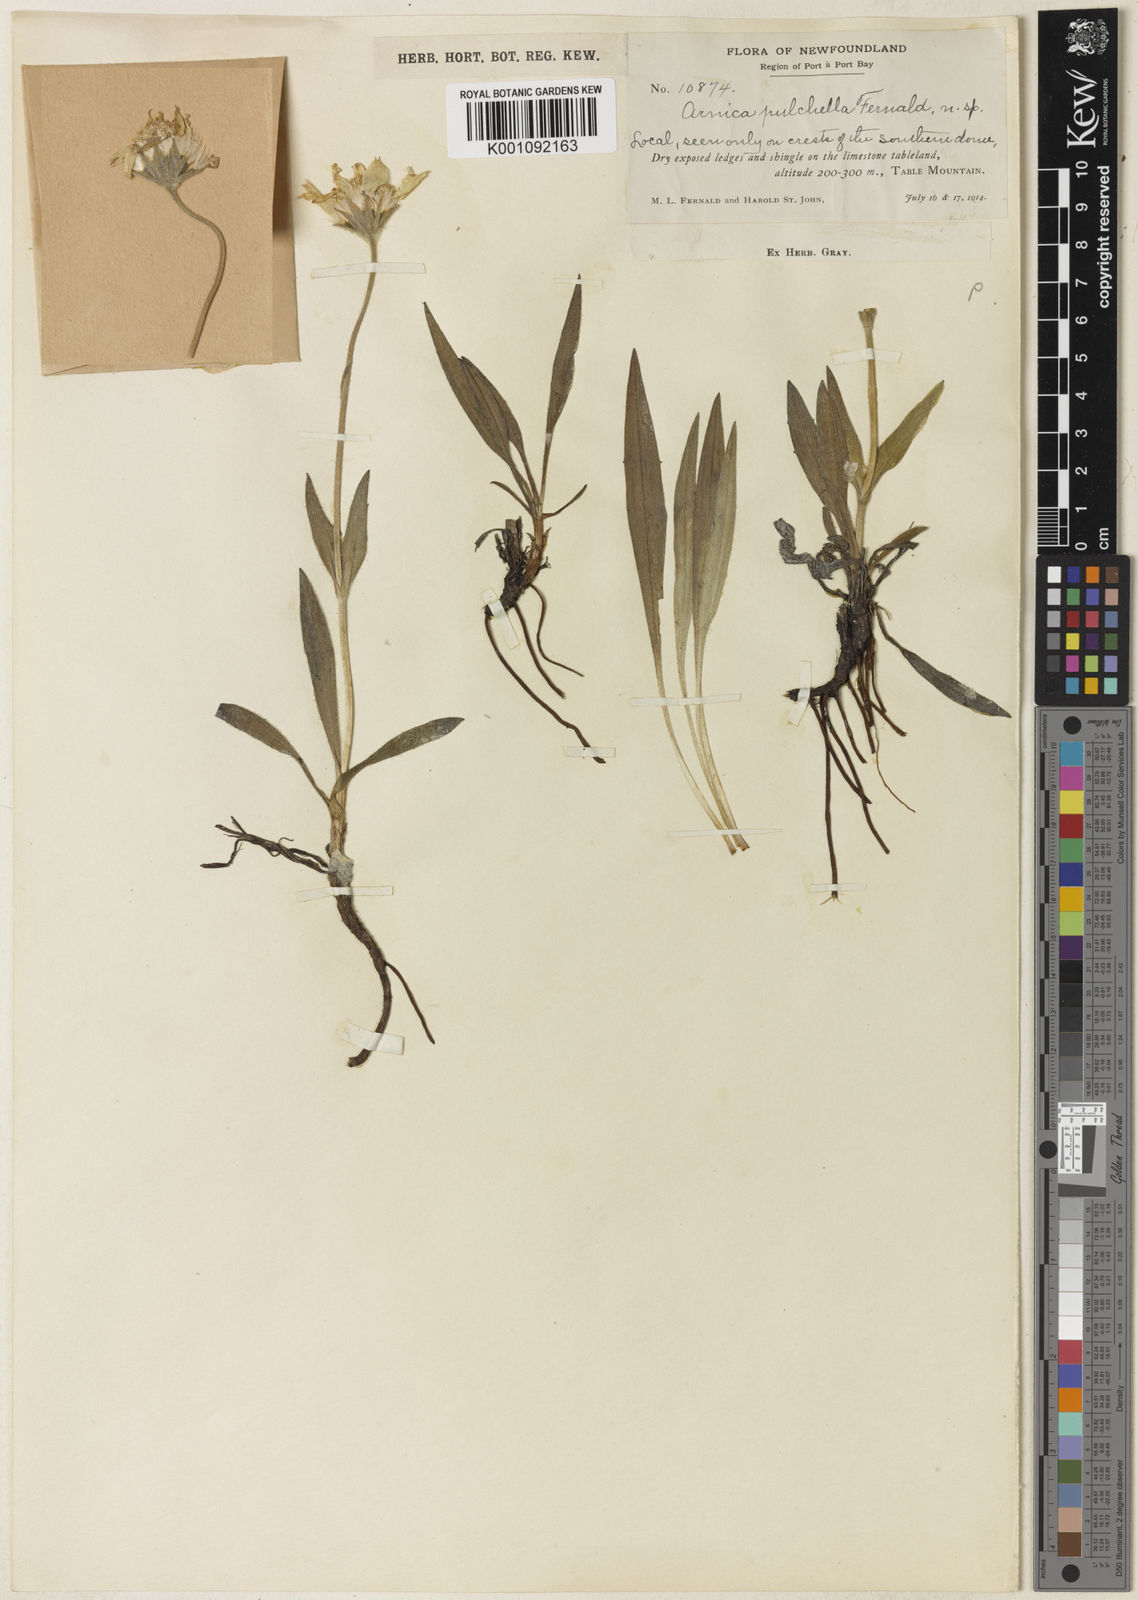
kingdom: Plantae
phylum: Tracheophyta
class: Magnoliopsida
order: Asterales
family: Asteraceae
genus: Arnica
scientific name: Arnica angustifolia
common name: Arctic arnica
